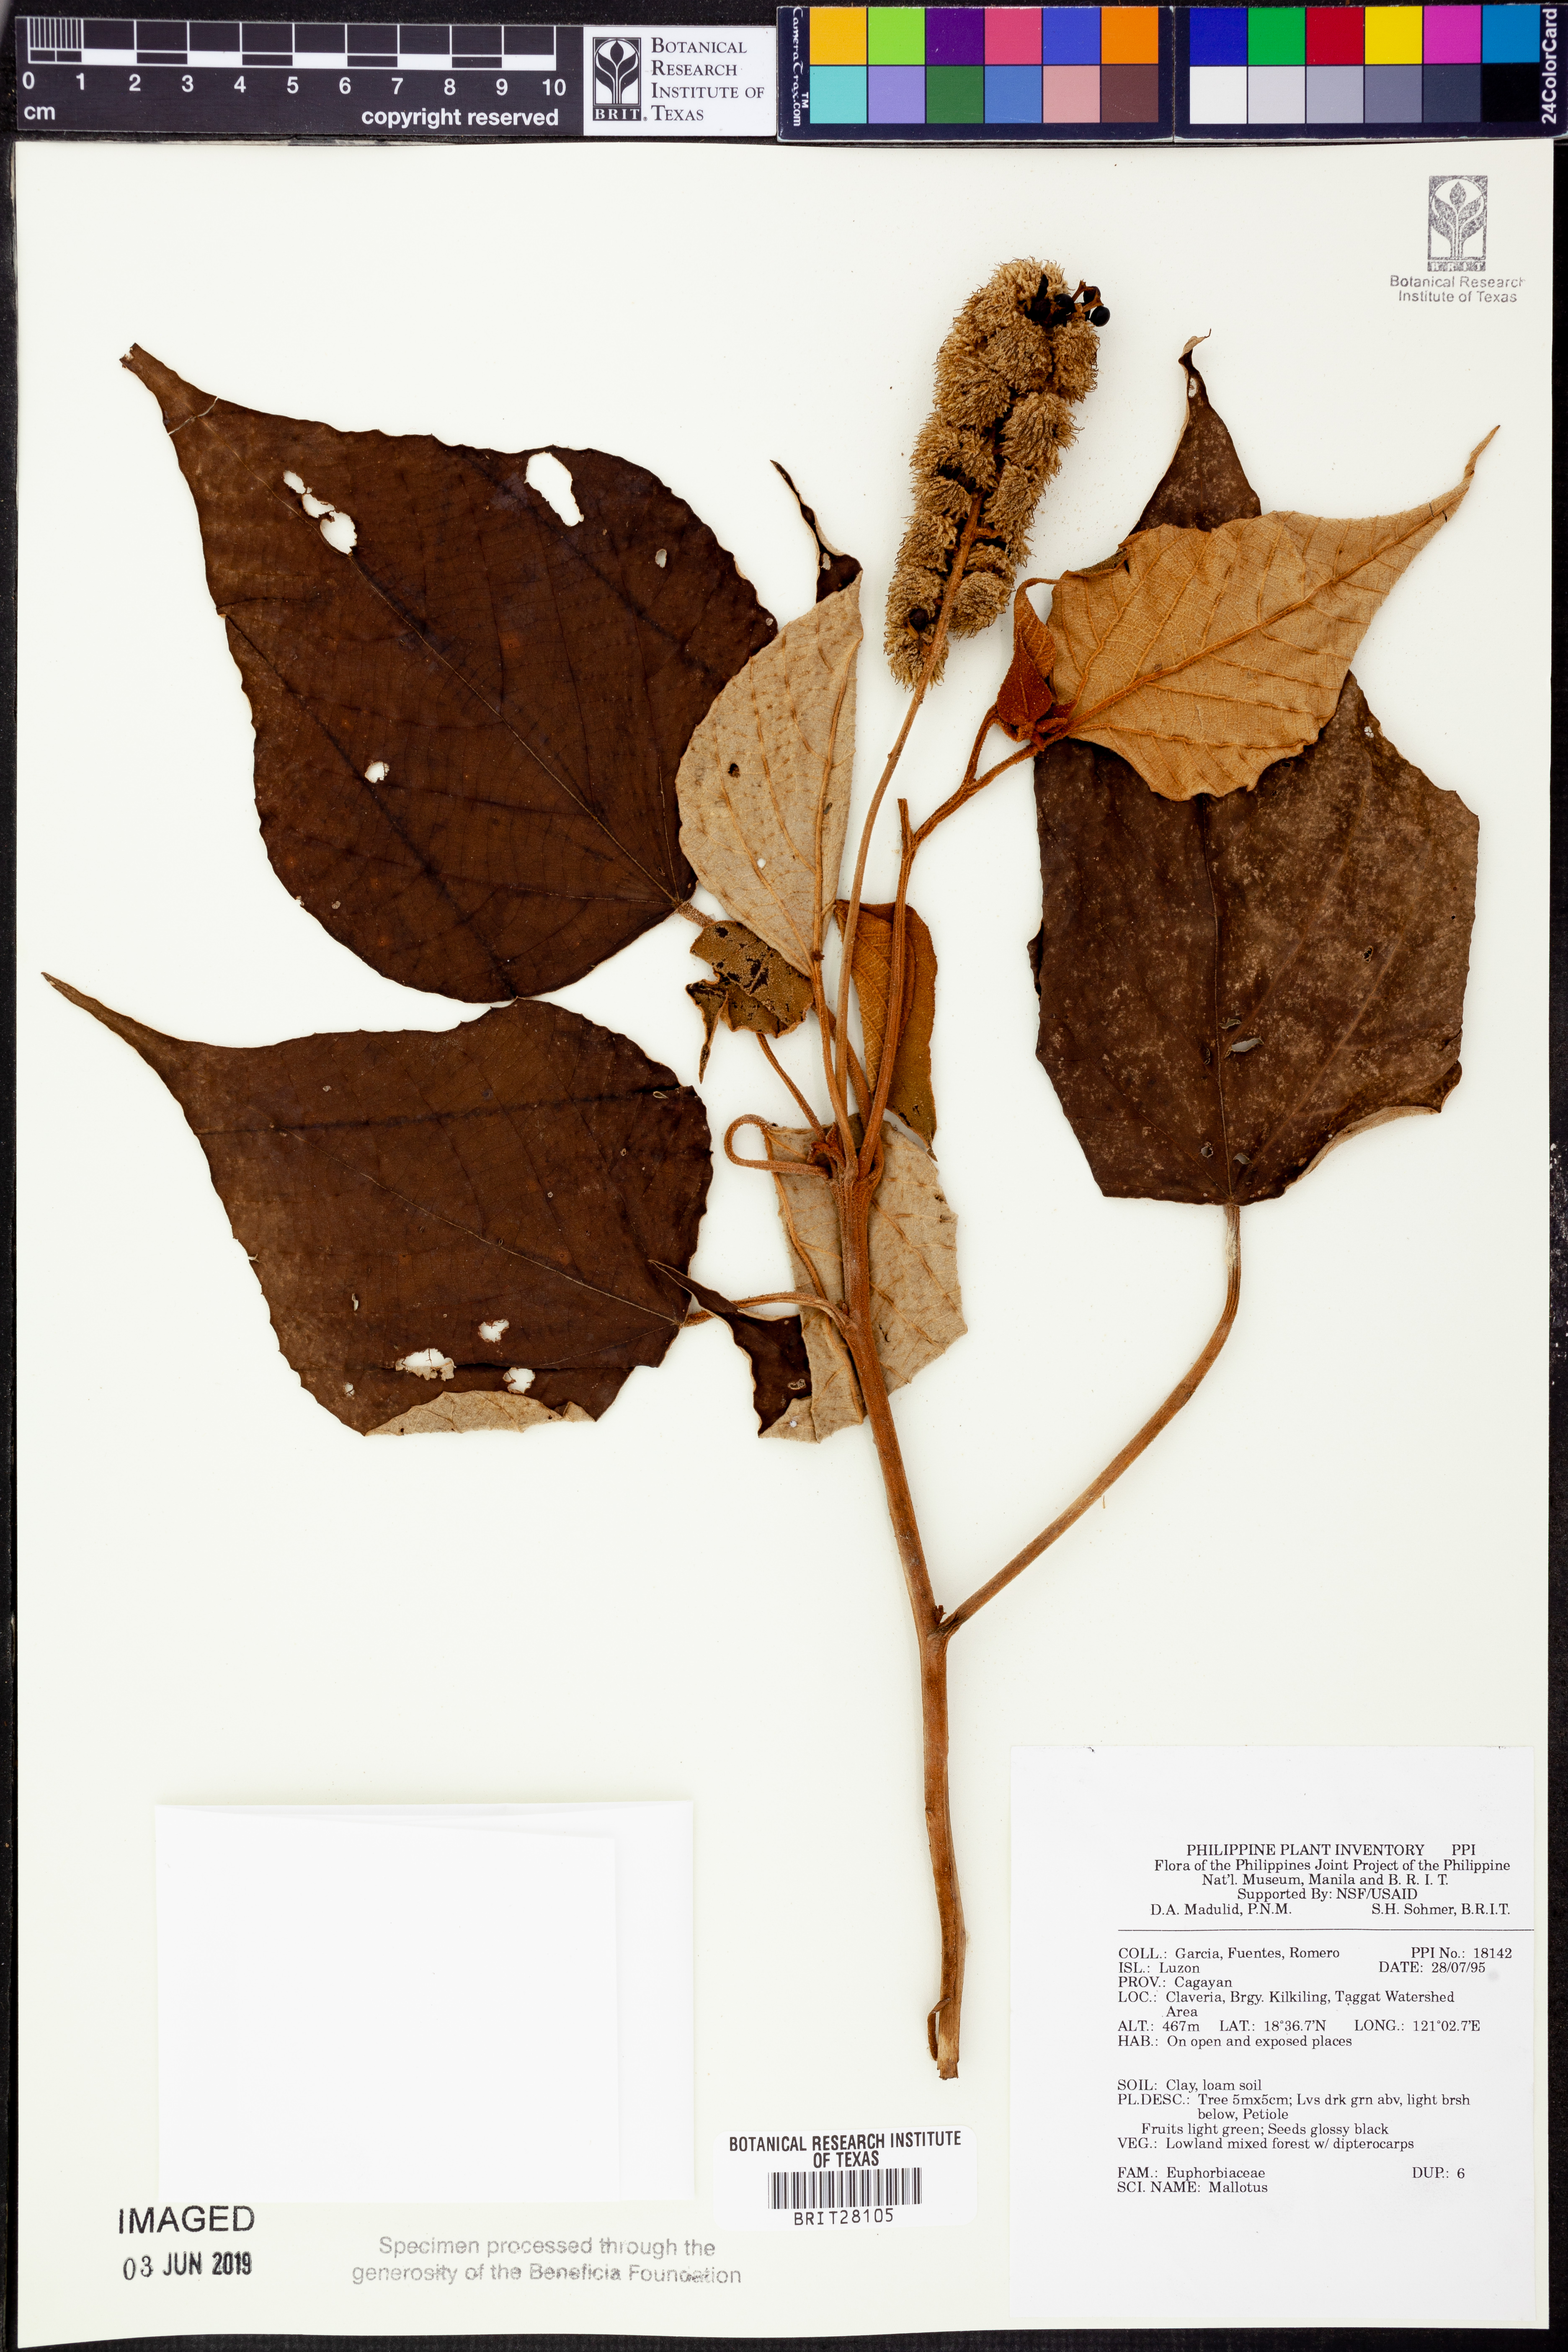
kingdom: Plantae
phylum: Tracheophyta
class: Magnoliopsida
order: Malpighiales
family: Euphorbiaceae
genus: Mallotus
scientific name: Mallotus
